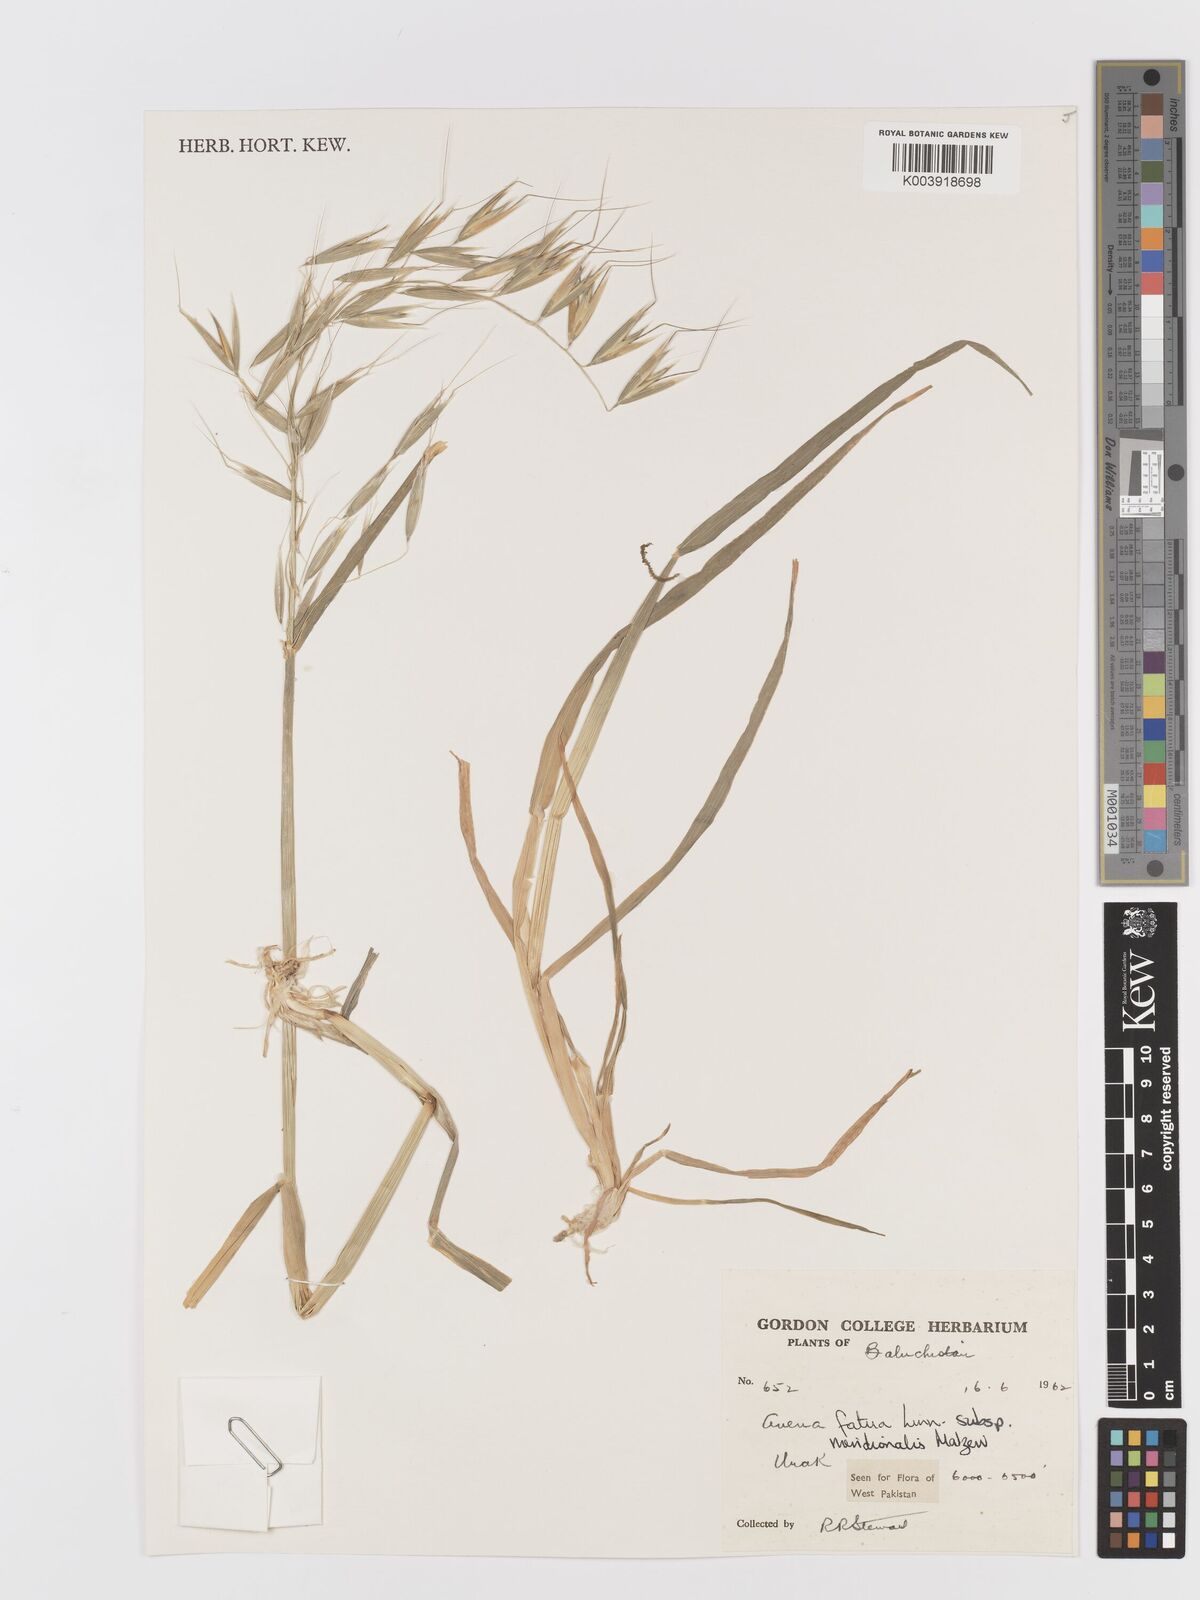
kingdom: Plantae
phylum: Tracheophyta
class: Liliopsida
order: Poales
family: Poaceae
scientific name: Poaceae
